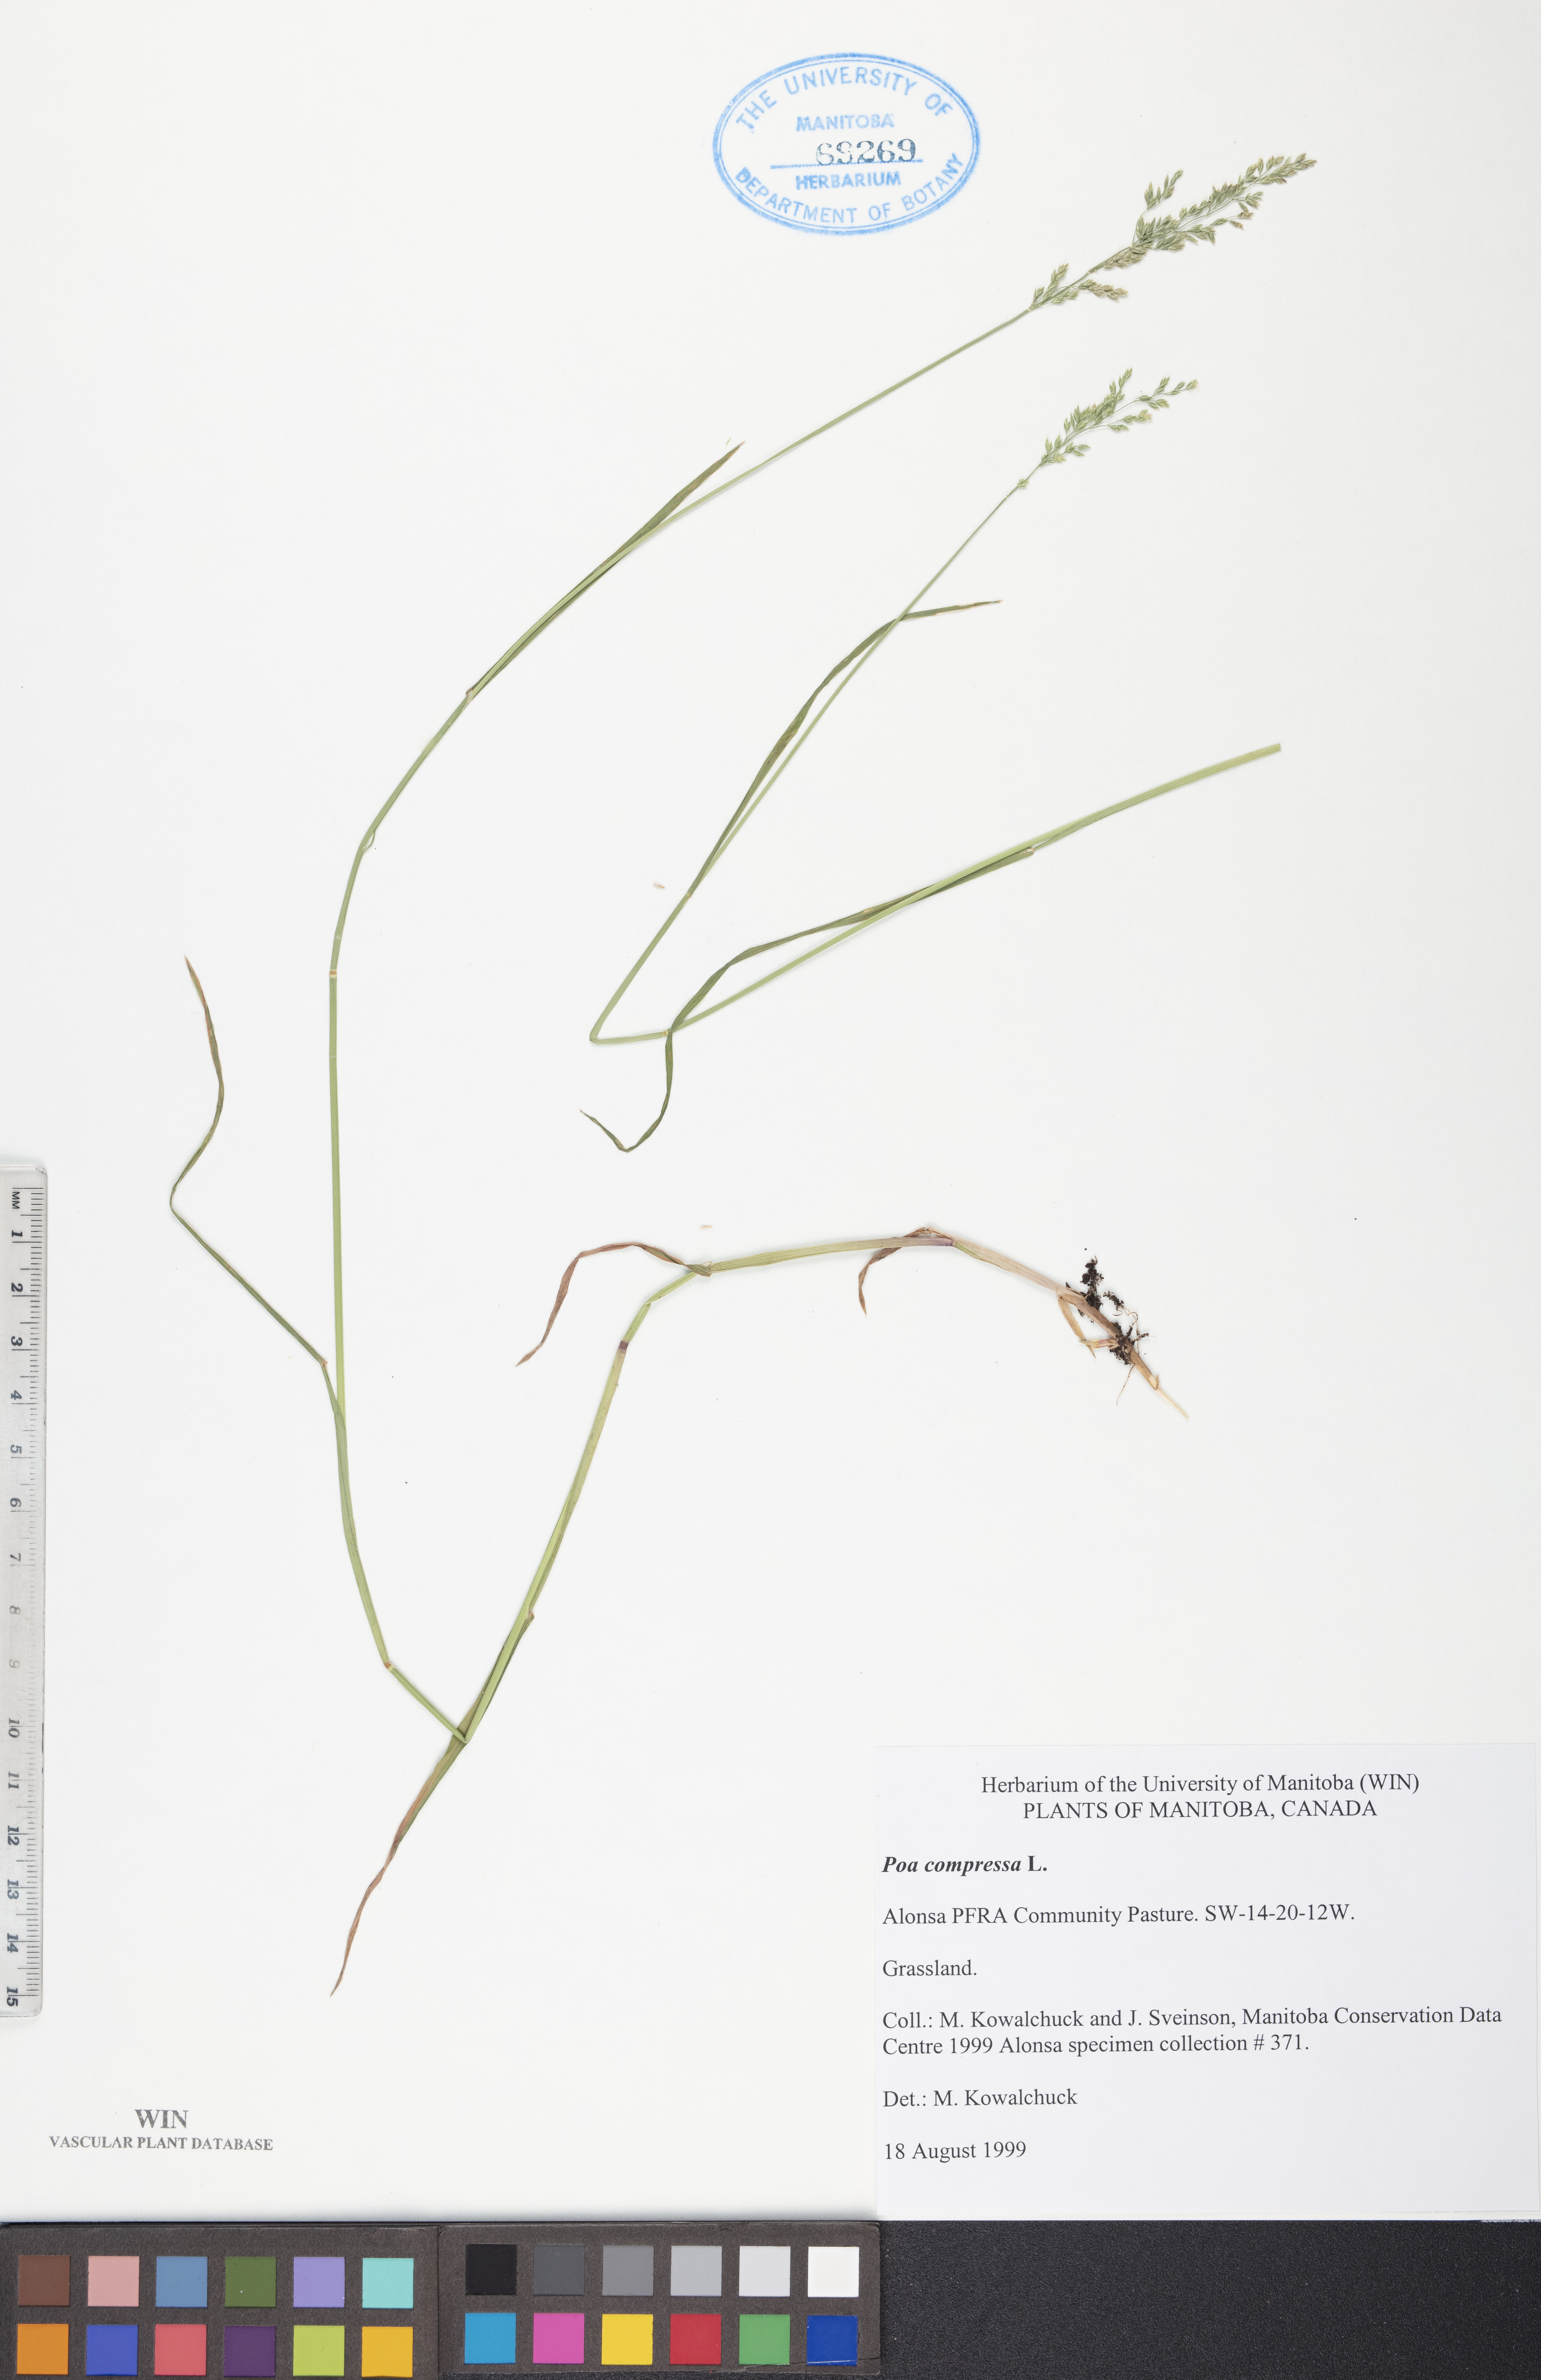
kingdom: Plantae
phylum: Tracheophyta
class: Liliopsida
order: Poales
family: Poaceae
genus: Poa
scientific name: Poa compressa
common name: Canada bluegrass
